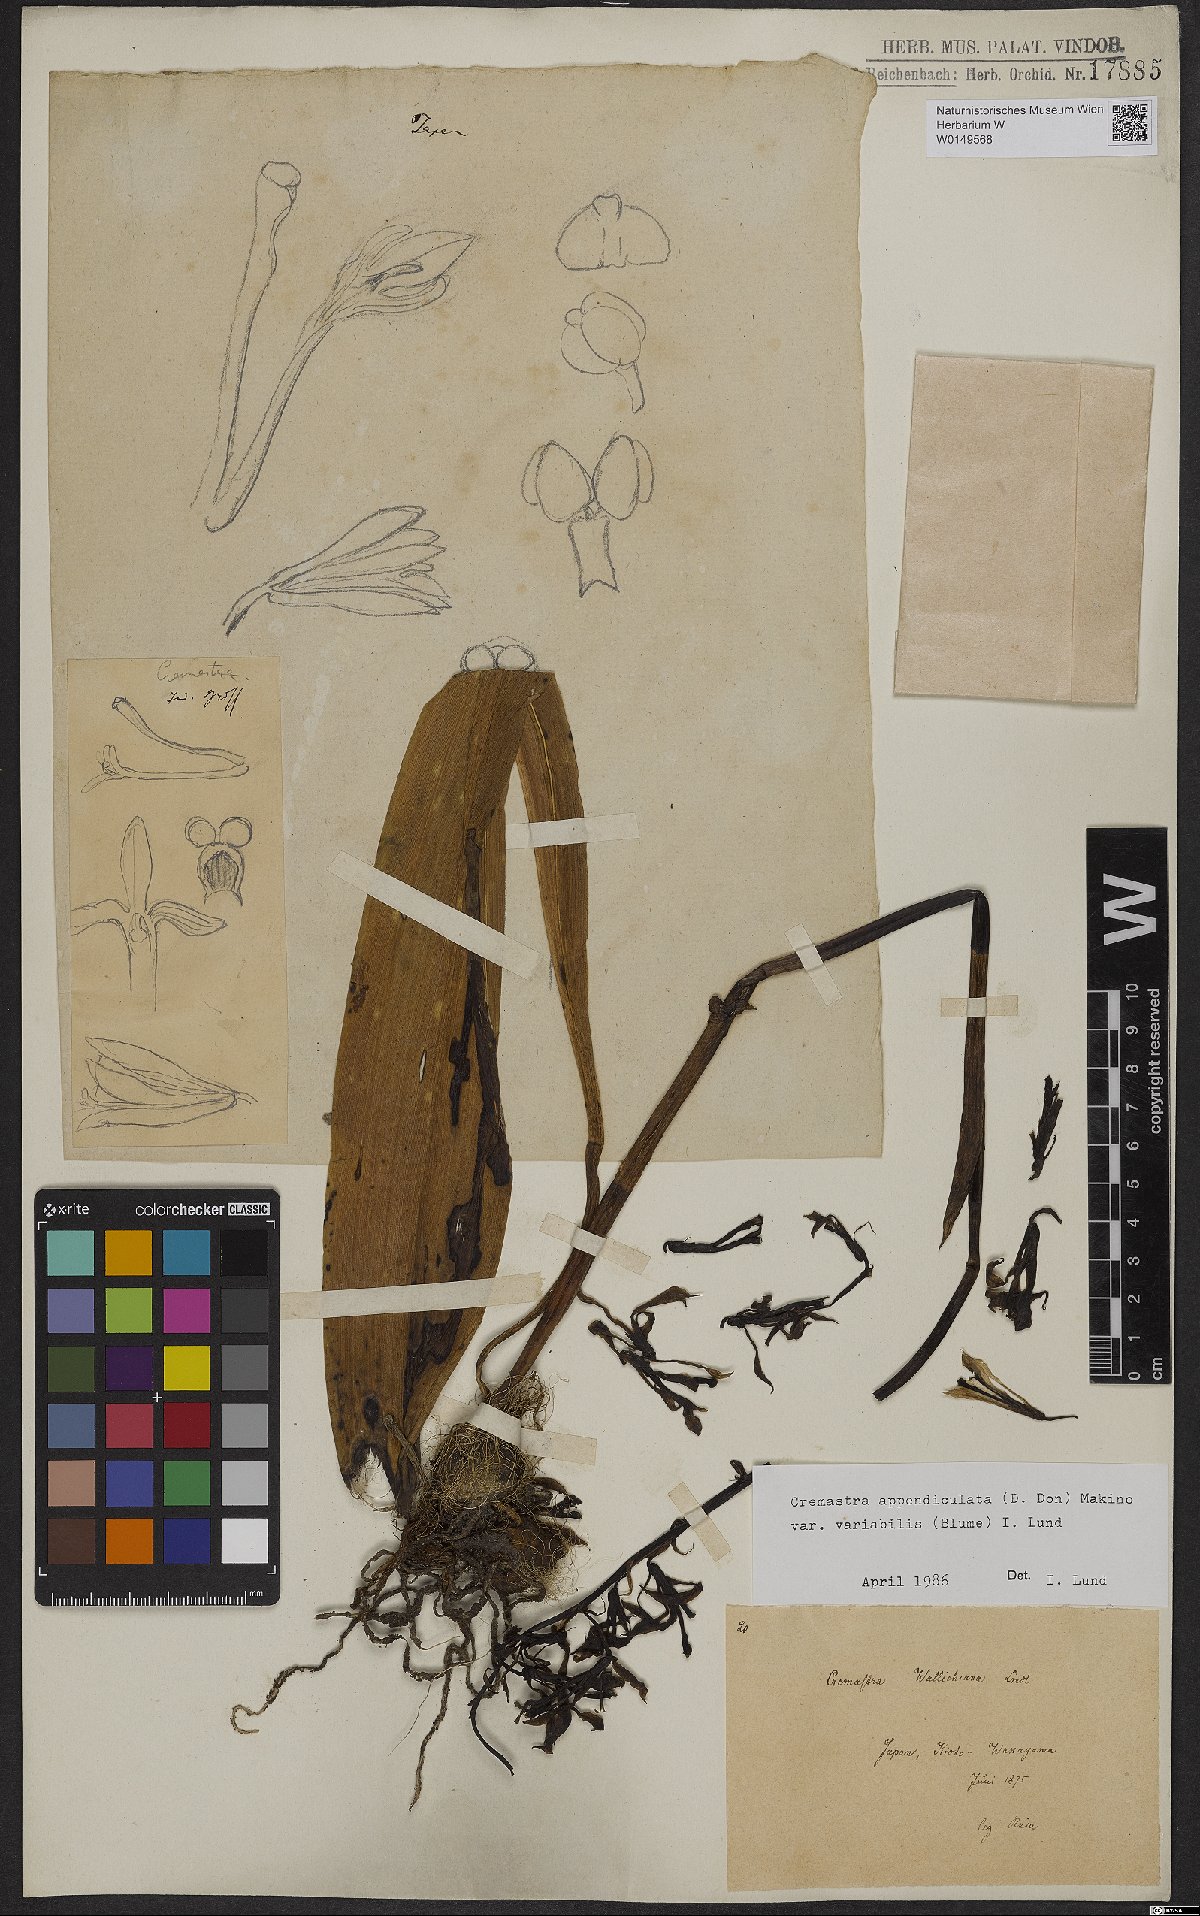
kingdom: Plantae
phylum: Tracheophyta
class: Liliopsida
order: Asparagales
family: Orchidaceae
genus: Cremastra
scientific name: Cremastra appendiculata
